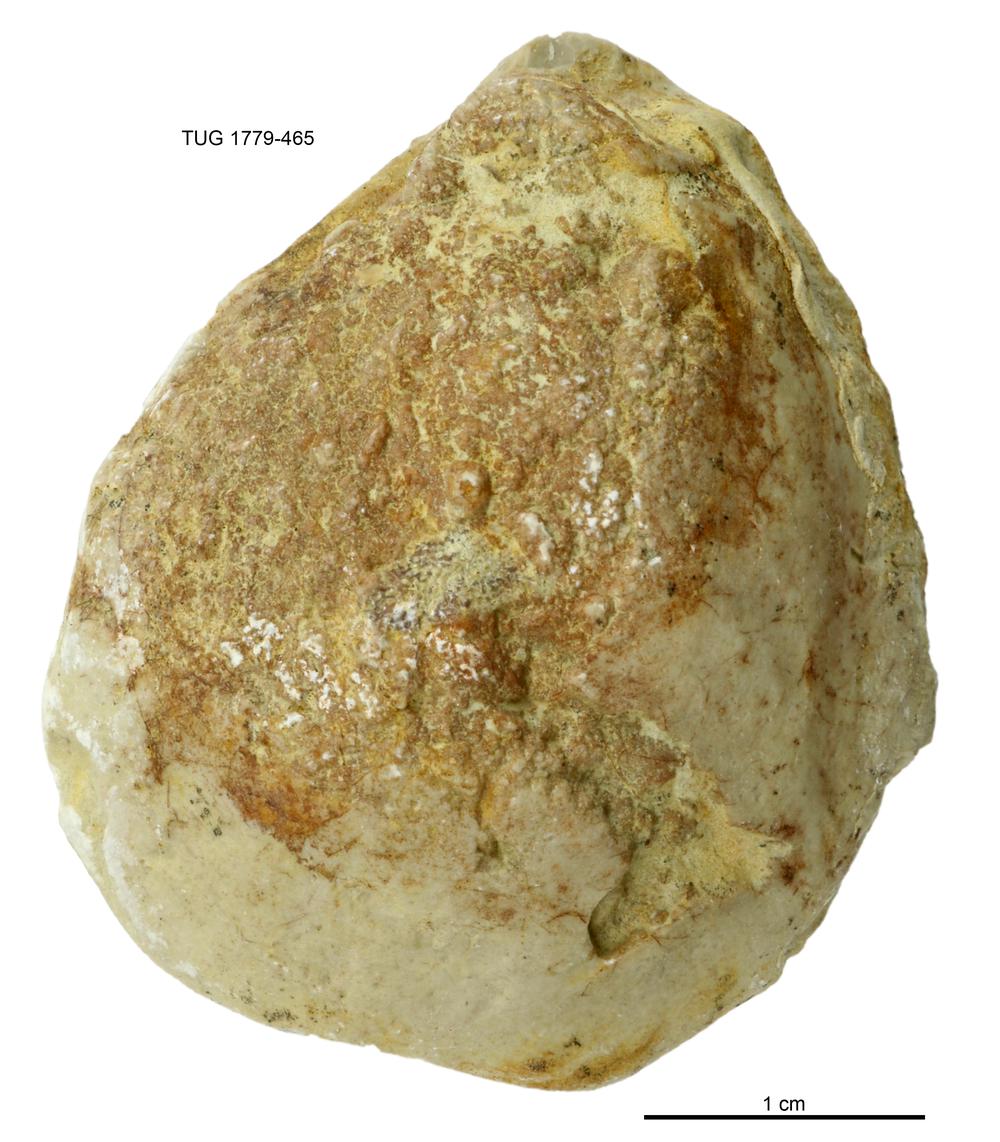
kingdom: Animalia
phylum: Mollusca
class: Bivalvia
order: Cyrtodontida
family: Cyrtodontidae
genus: Cypricardites
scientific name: Cypricardites
